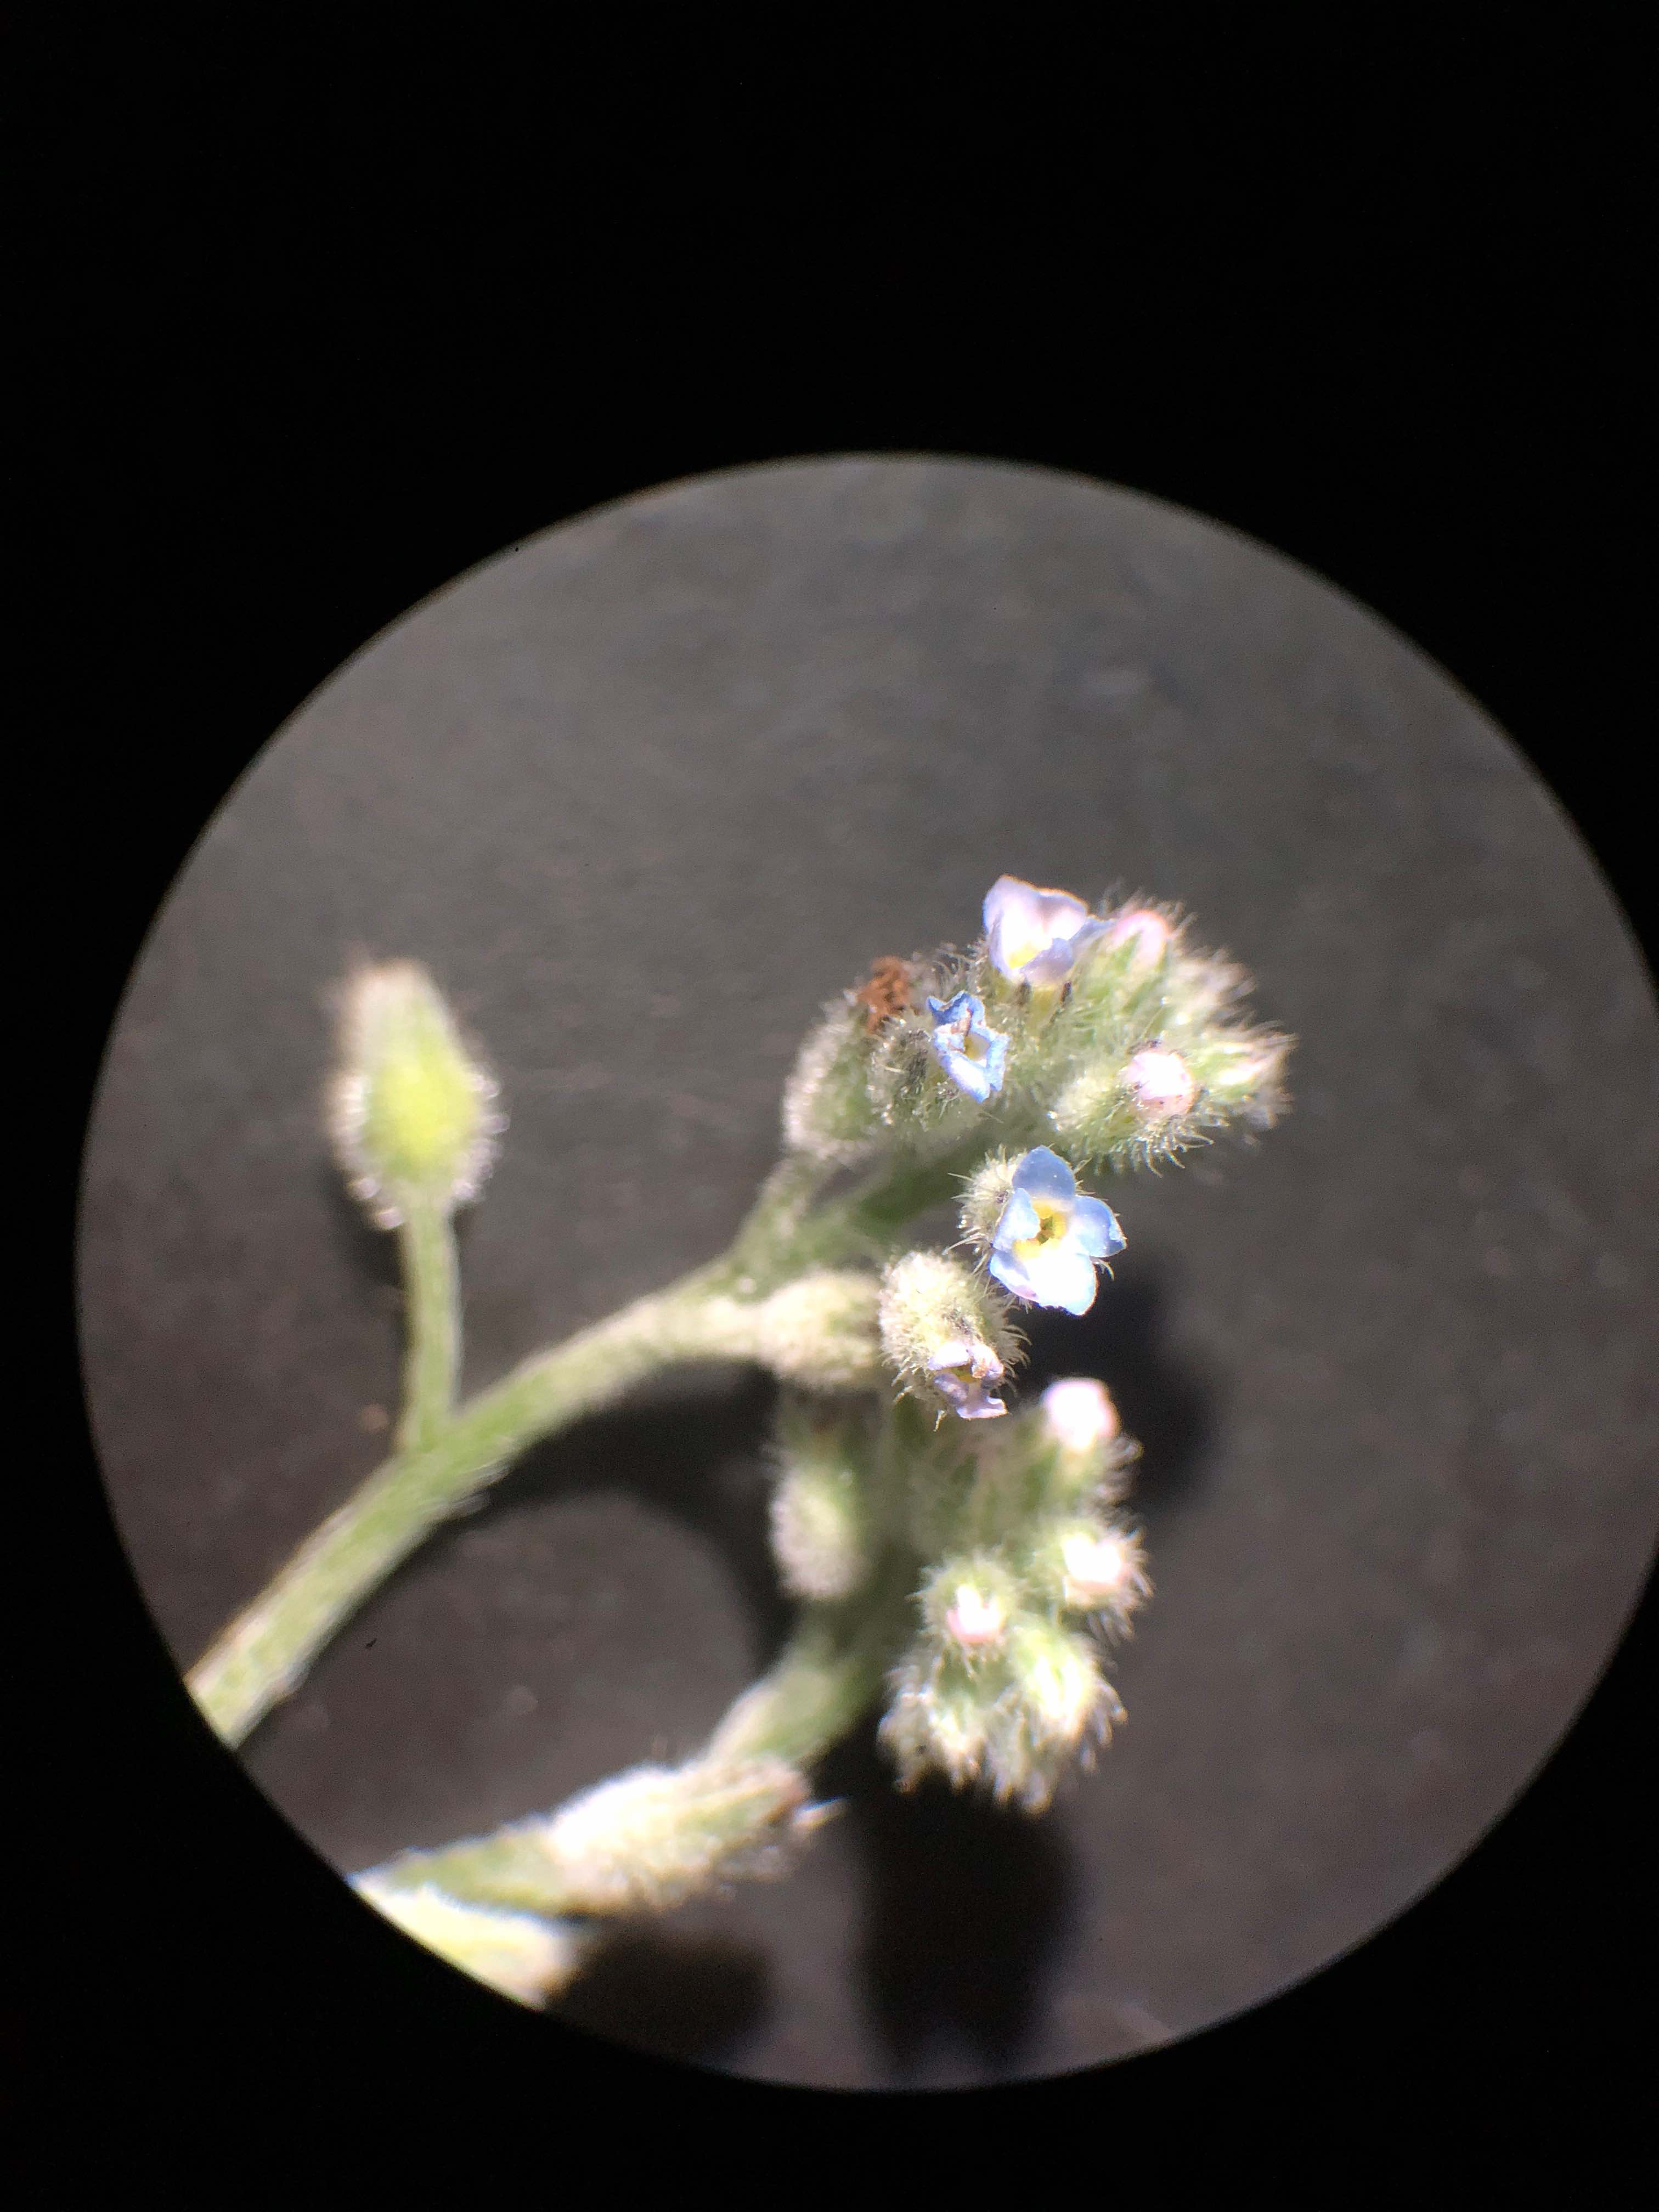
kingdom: Fungi
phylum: Ascomycota
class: Leotiomycetes
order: Helotiales
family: Erysiphaceae
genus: Golovinomyces
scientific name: Golovinomyces asperifolii
